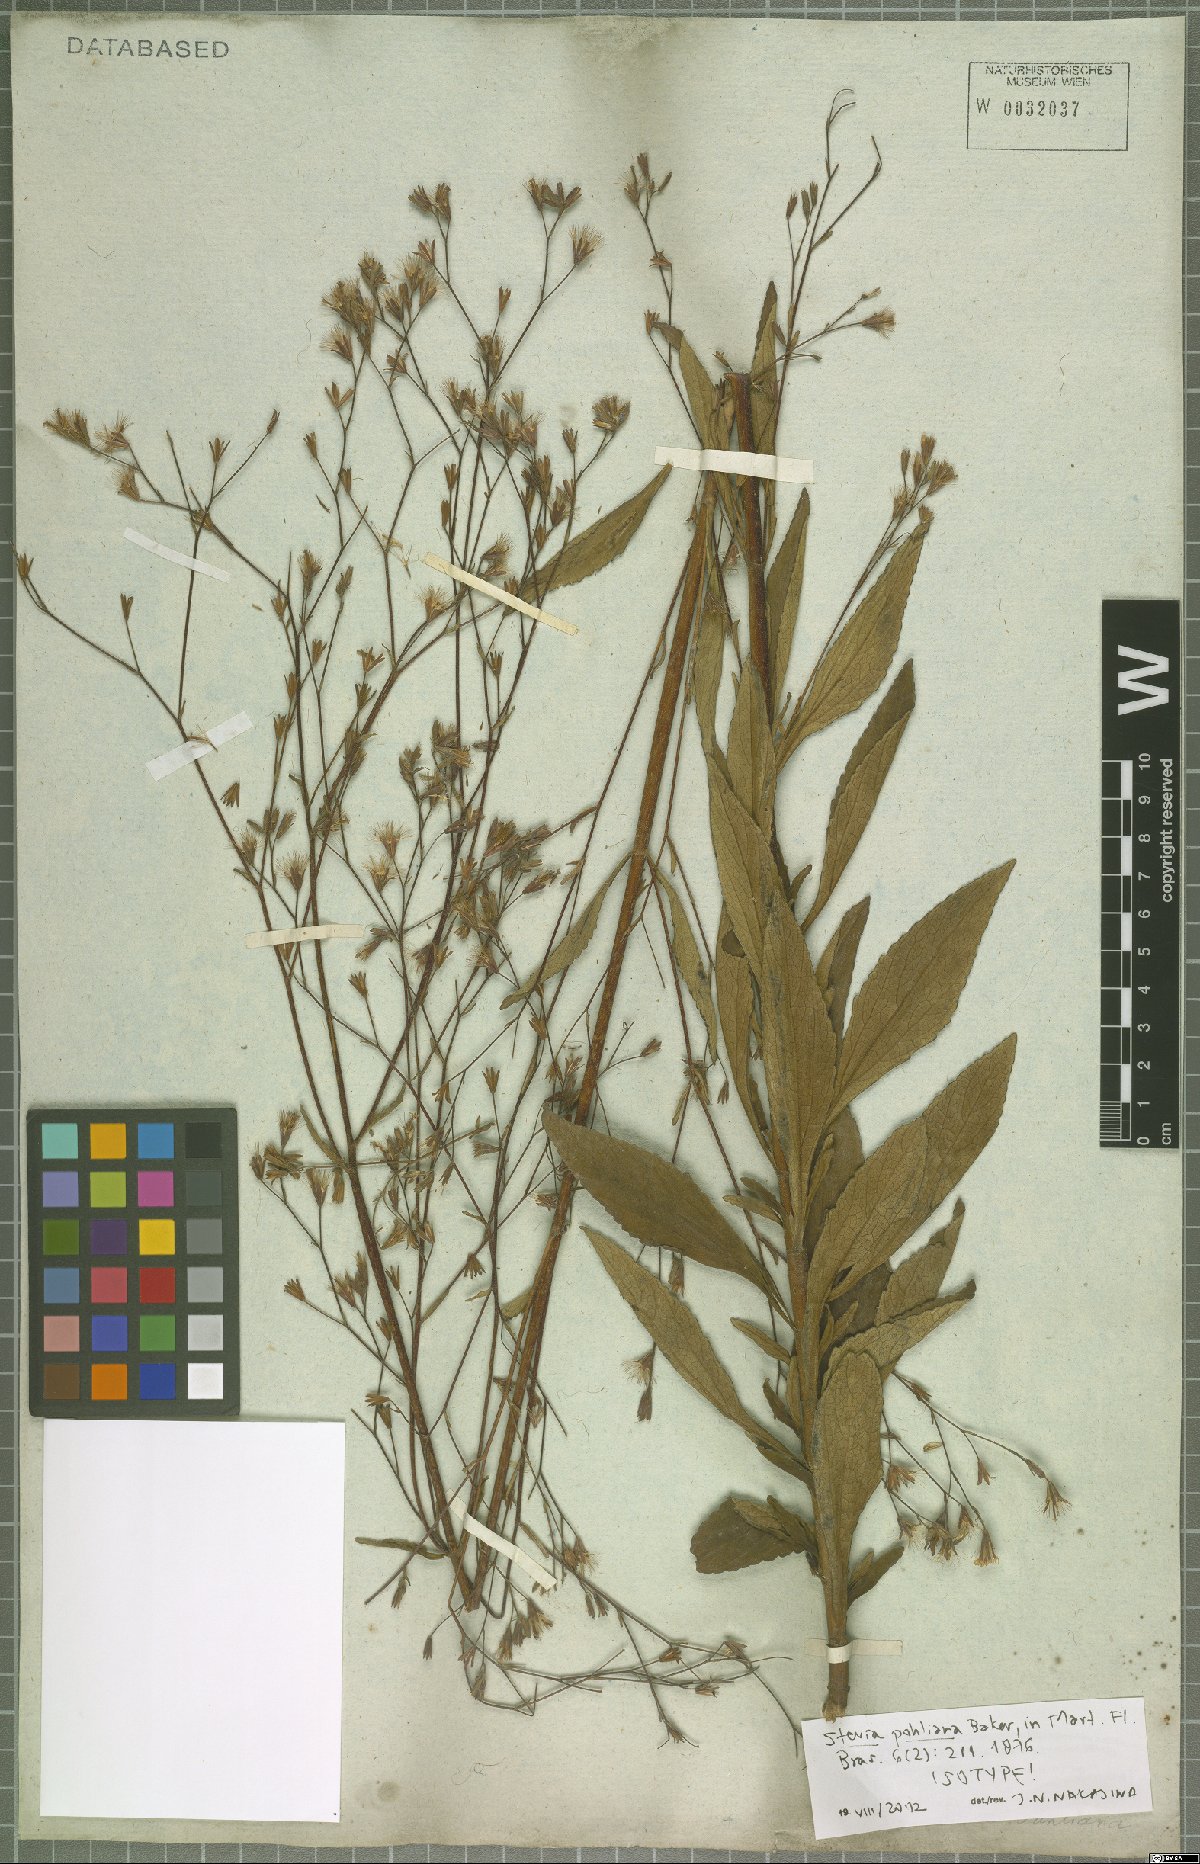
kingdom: Plantae
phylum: Tracheophyta
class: Magnoliopsida
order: Asterales
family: Asteraceae
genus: Stevia
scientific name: Stevia pohliana
